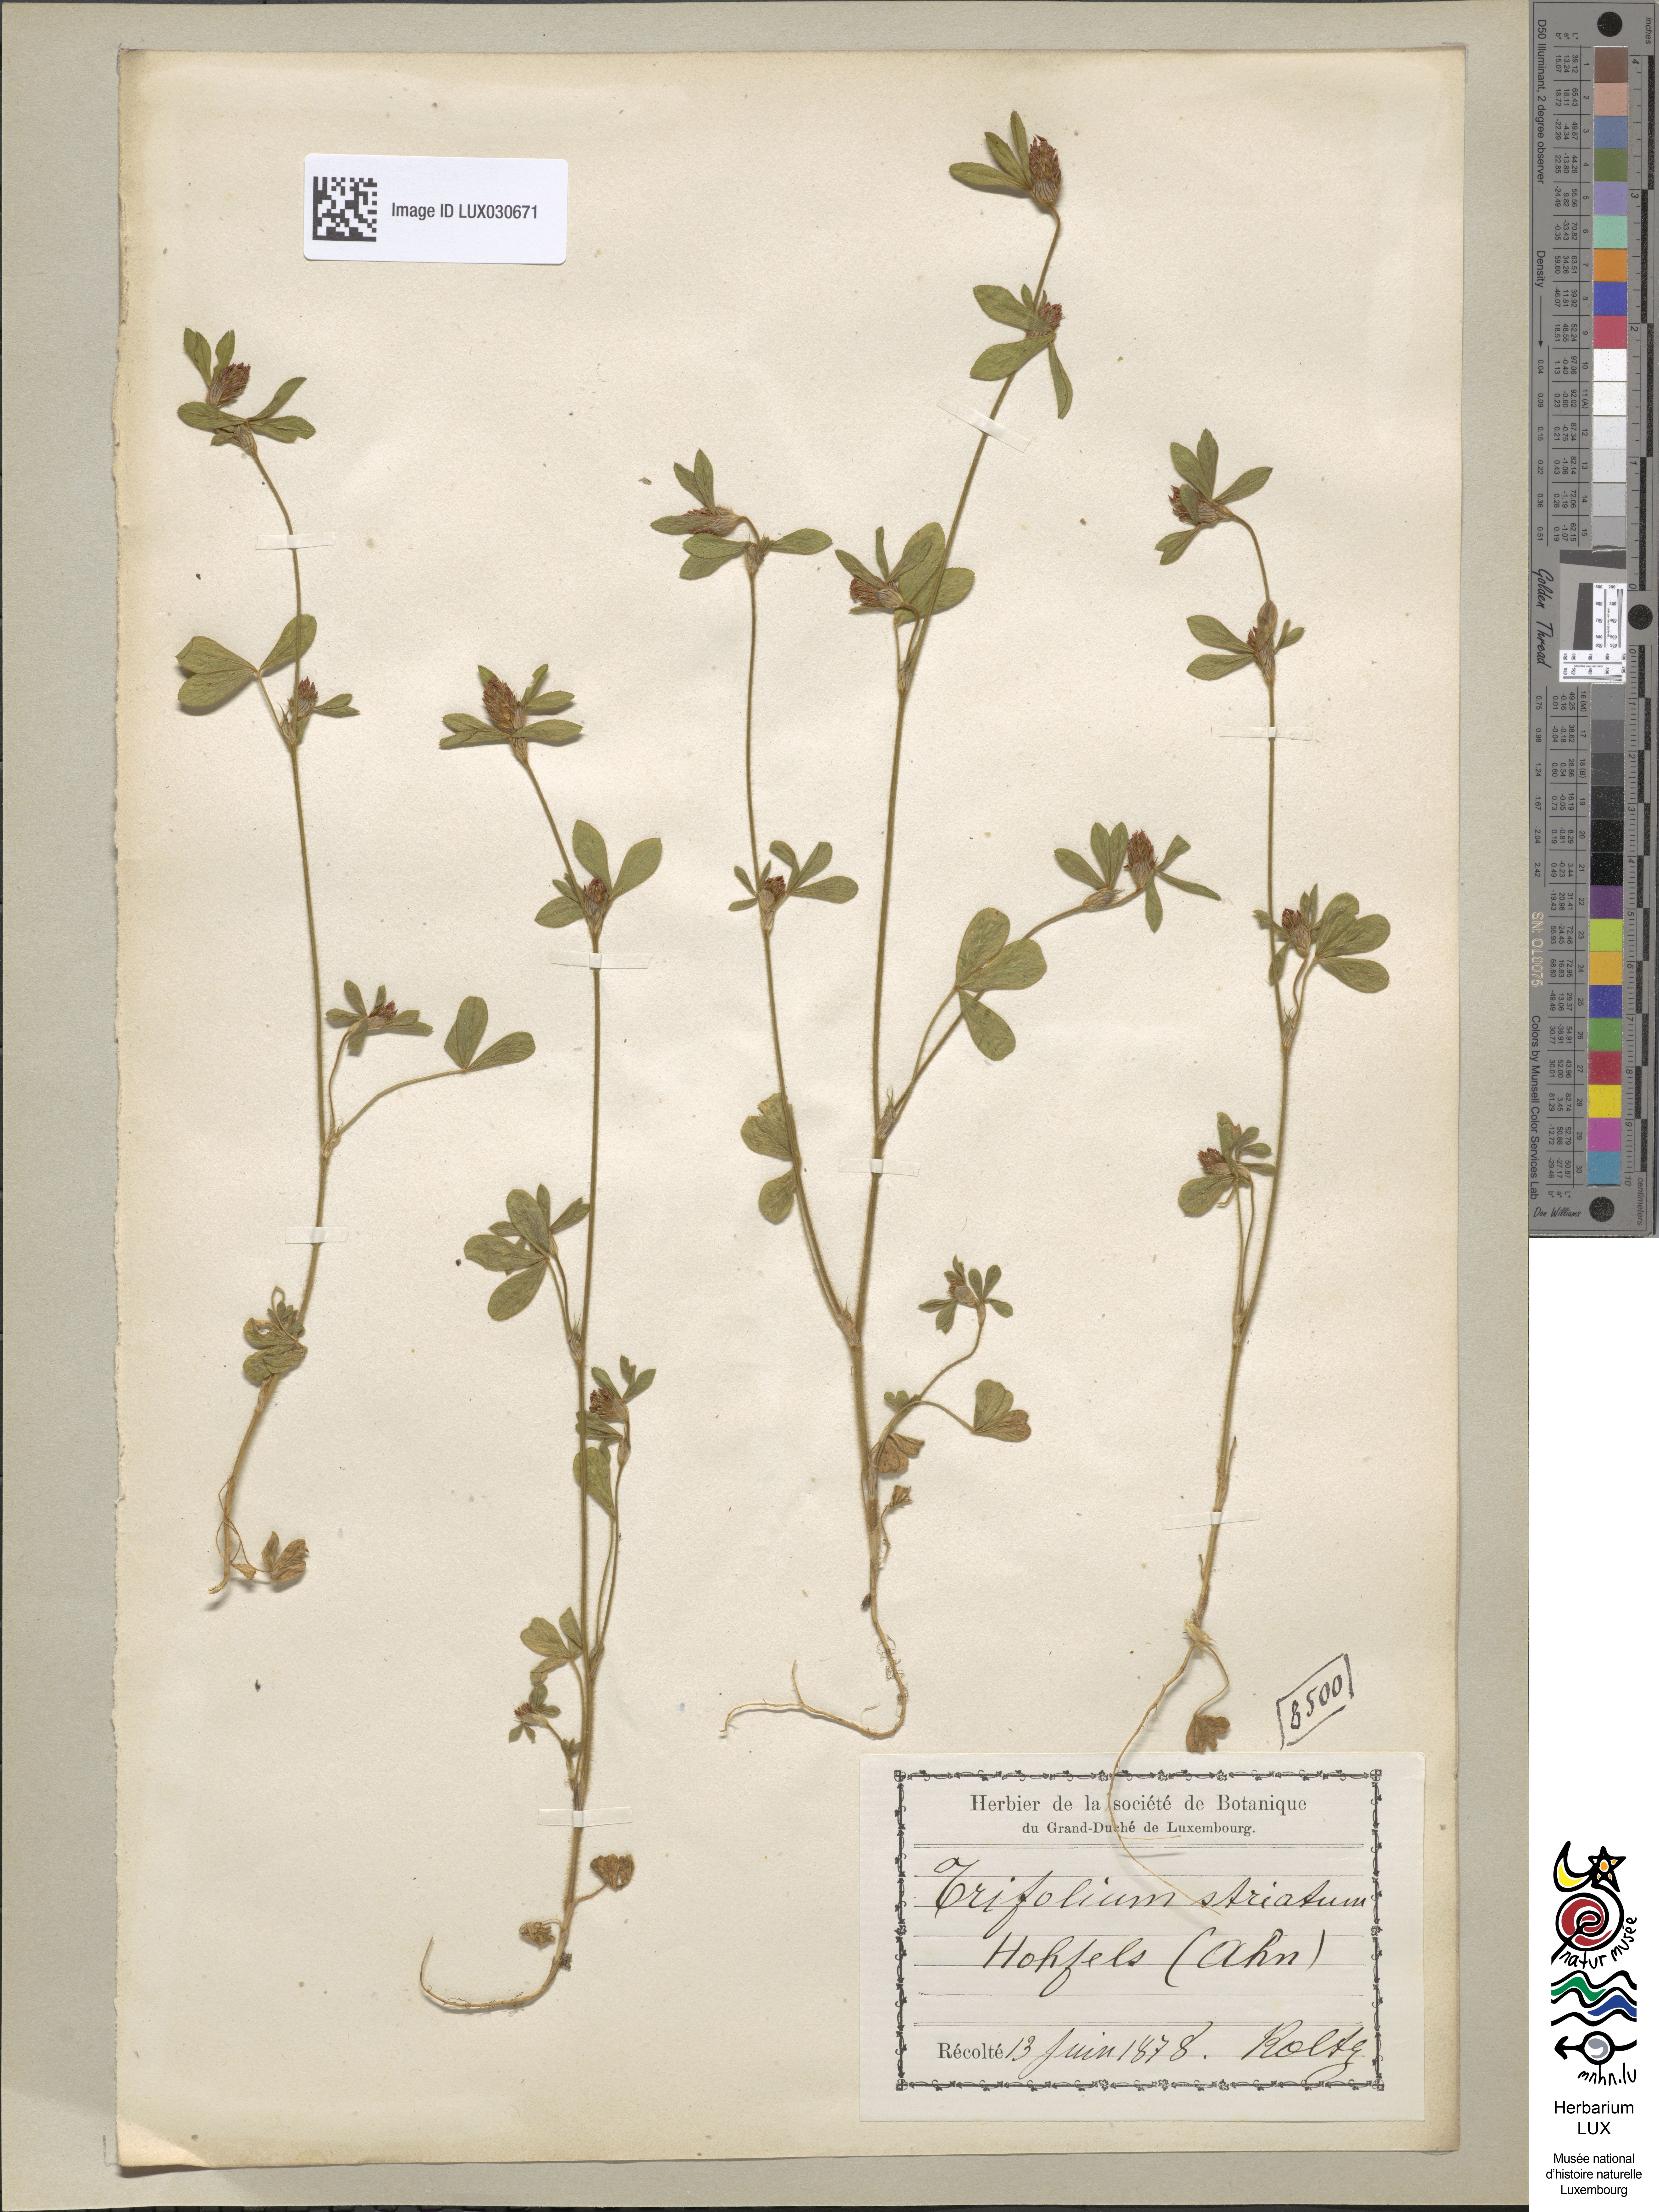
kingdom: Plantae
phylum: Tracheophyta
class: Magnoliopsida
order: Fabales
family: Fabaceae
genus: Trifolium
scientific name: Trifolium striatum
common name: Knotted clover
